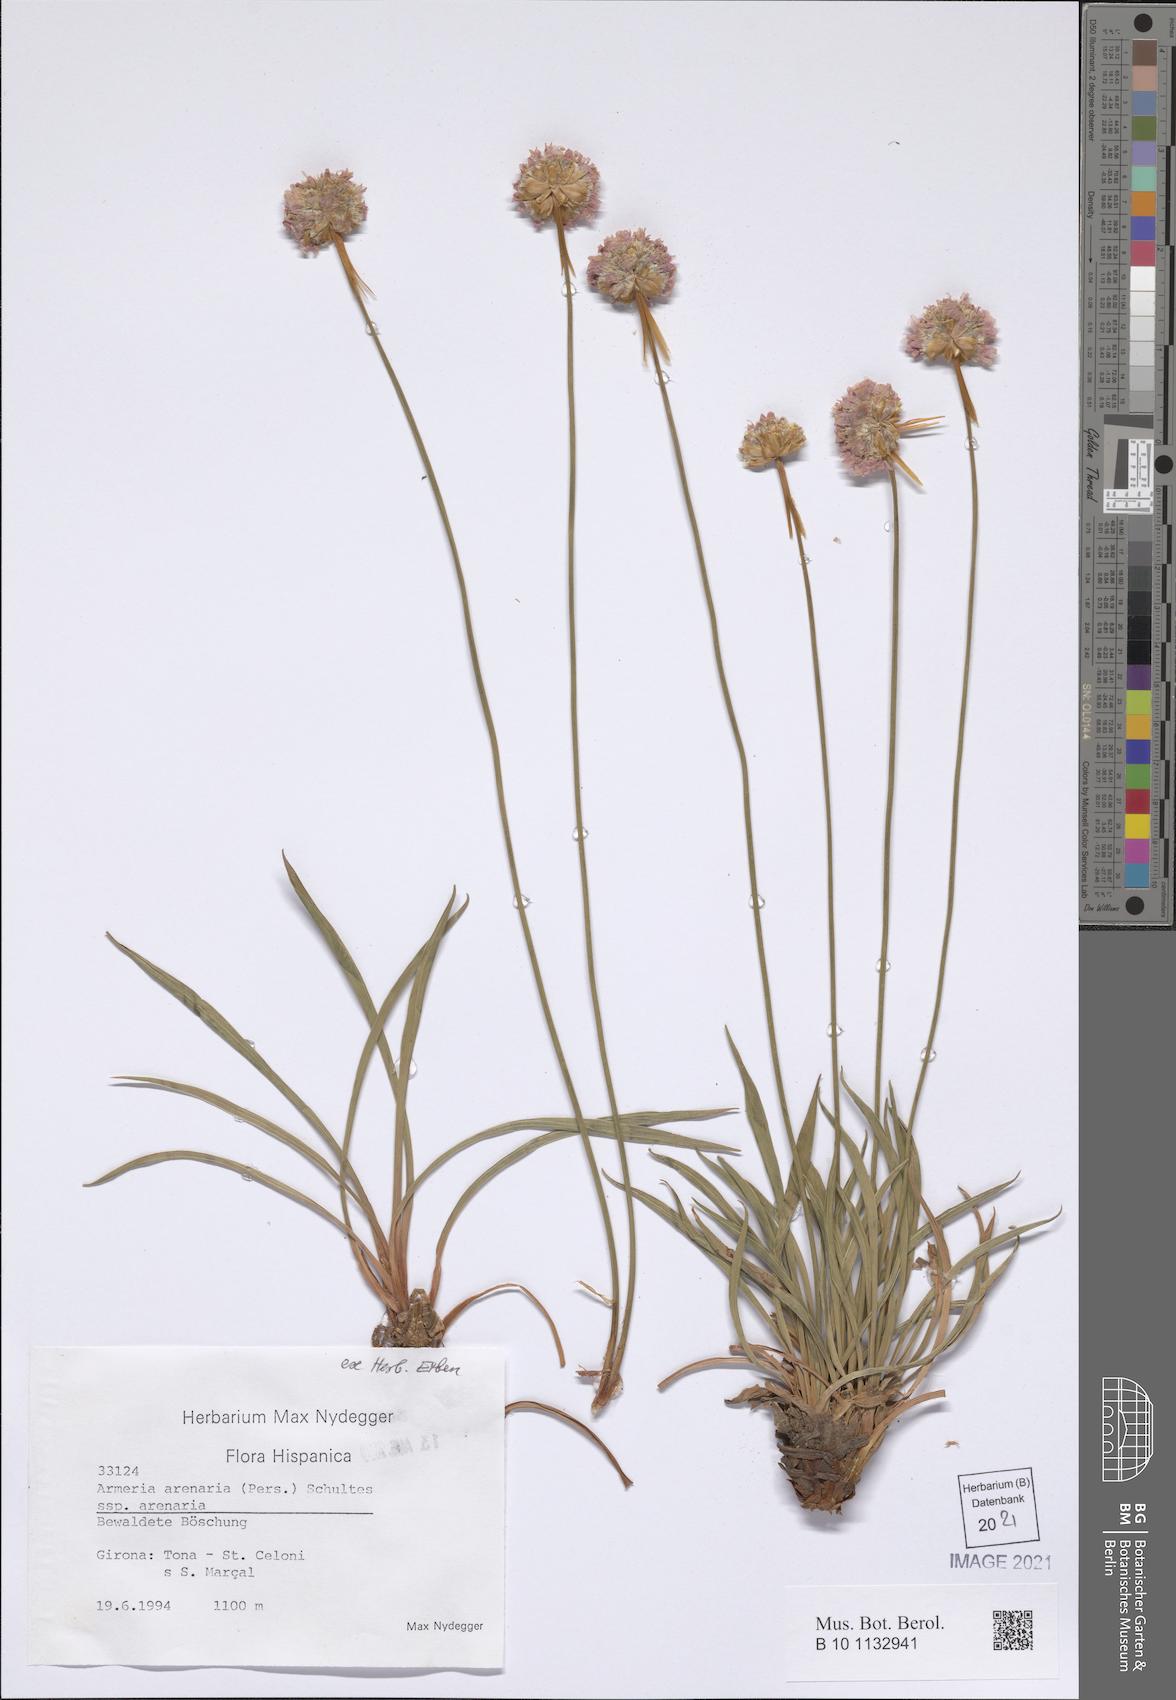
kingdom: Plantae
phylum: Tracheophyta
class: Magnoliopsida
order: Caryophyllales
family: Plumbaginaceae
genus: Armeria
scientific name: Armeria arenaria
